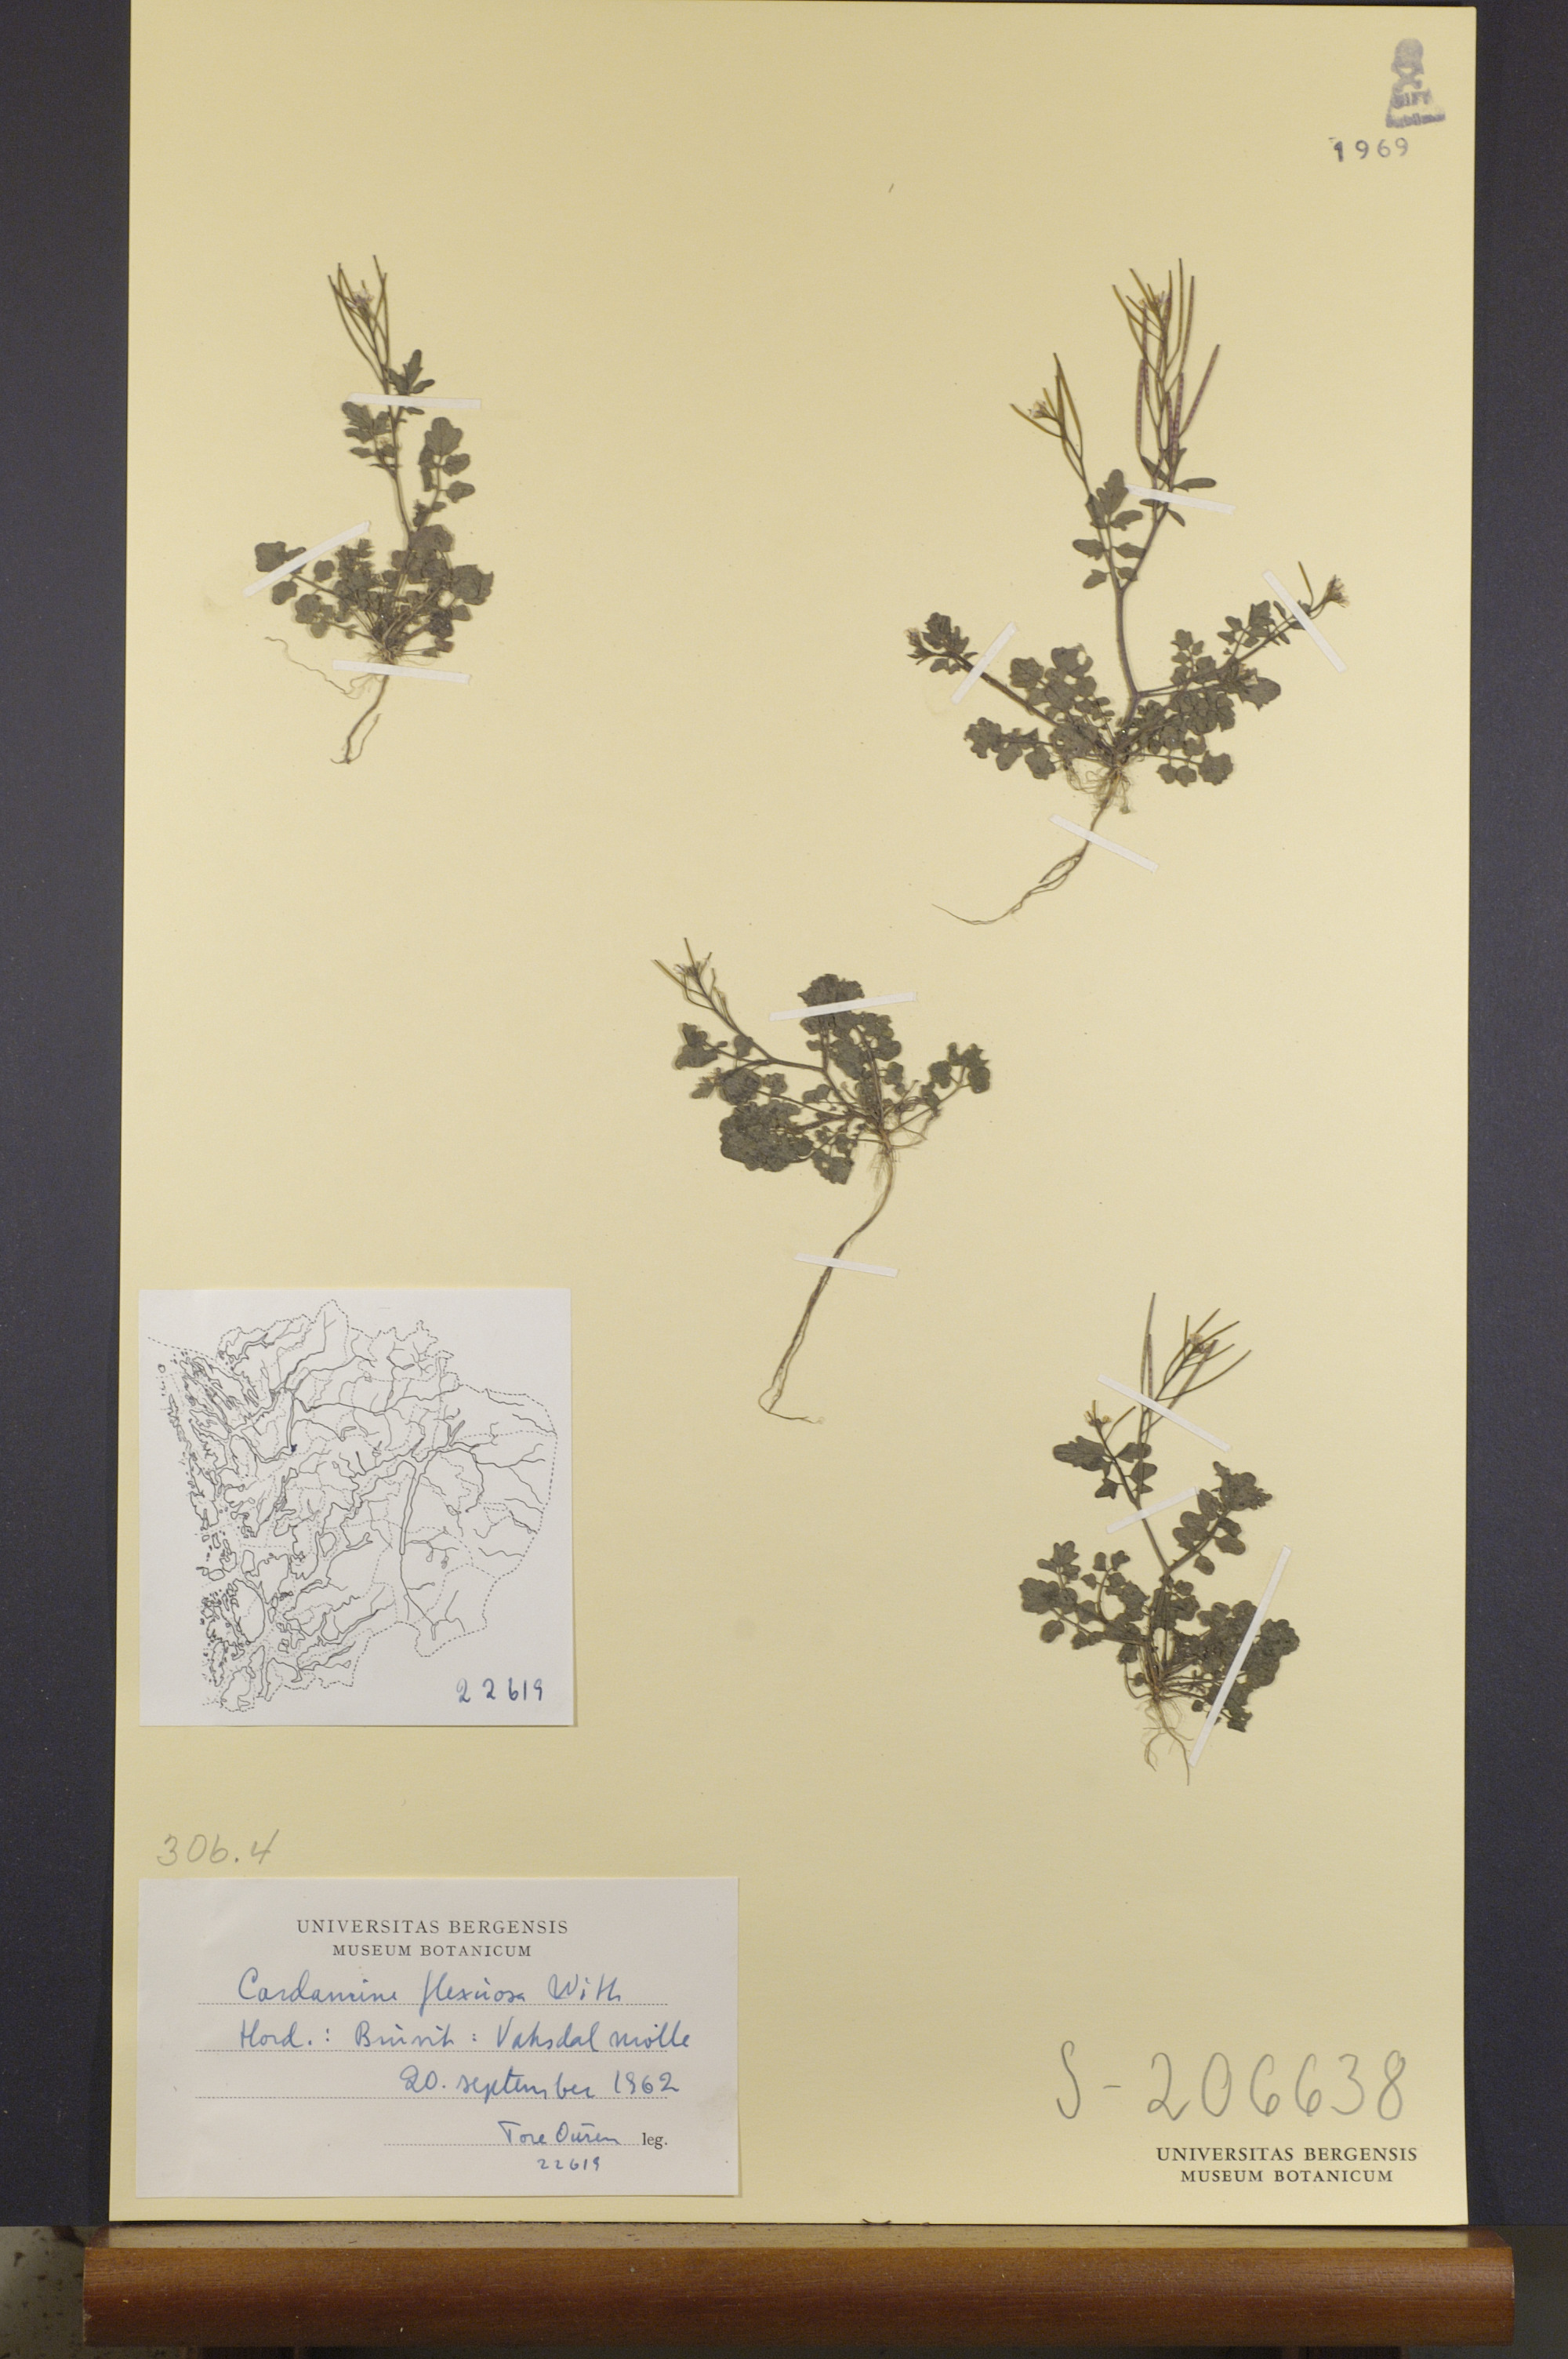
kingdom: Plantae
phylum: Tracheophyta
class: Magnoliopsida
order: Brassicales
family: Brassicaceae
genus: Cardamine
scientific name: Cardamine flexuosa
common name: Woodland bittercress
